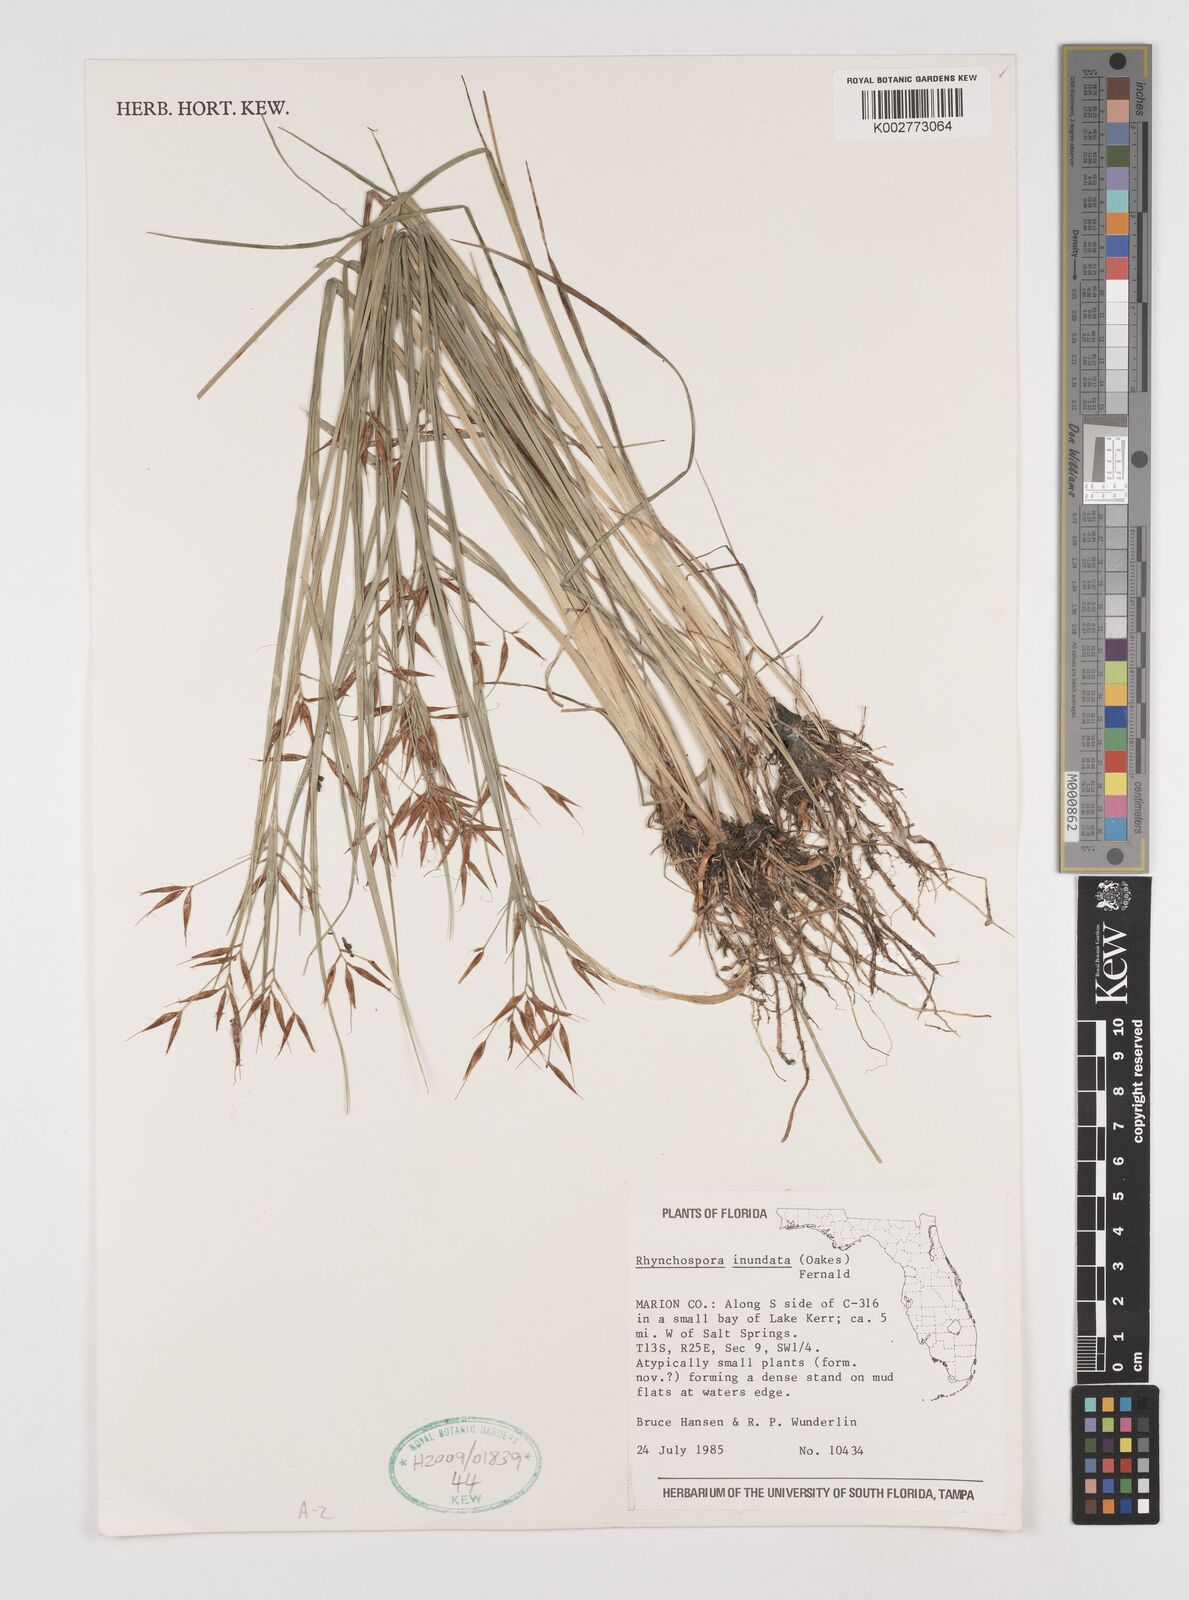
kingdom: Plantae
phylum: Tracheophyta
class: Liliopsida
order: Poales
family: Cyperaceae
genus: Rhynchospora
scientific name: Rhynchospora inundata
